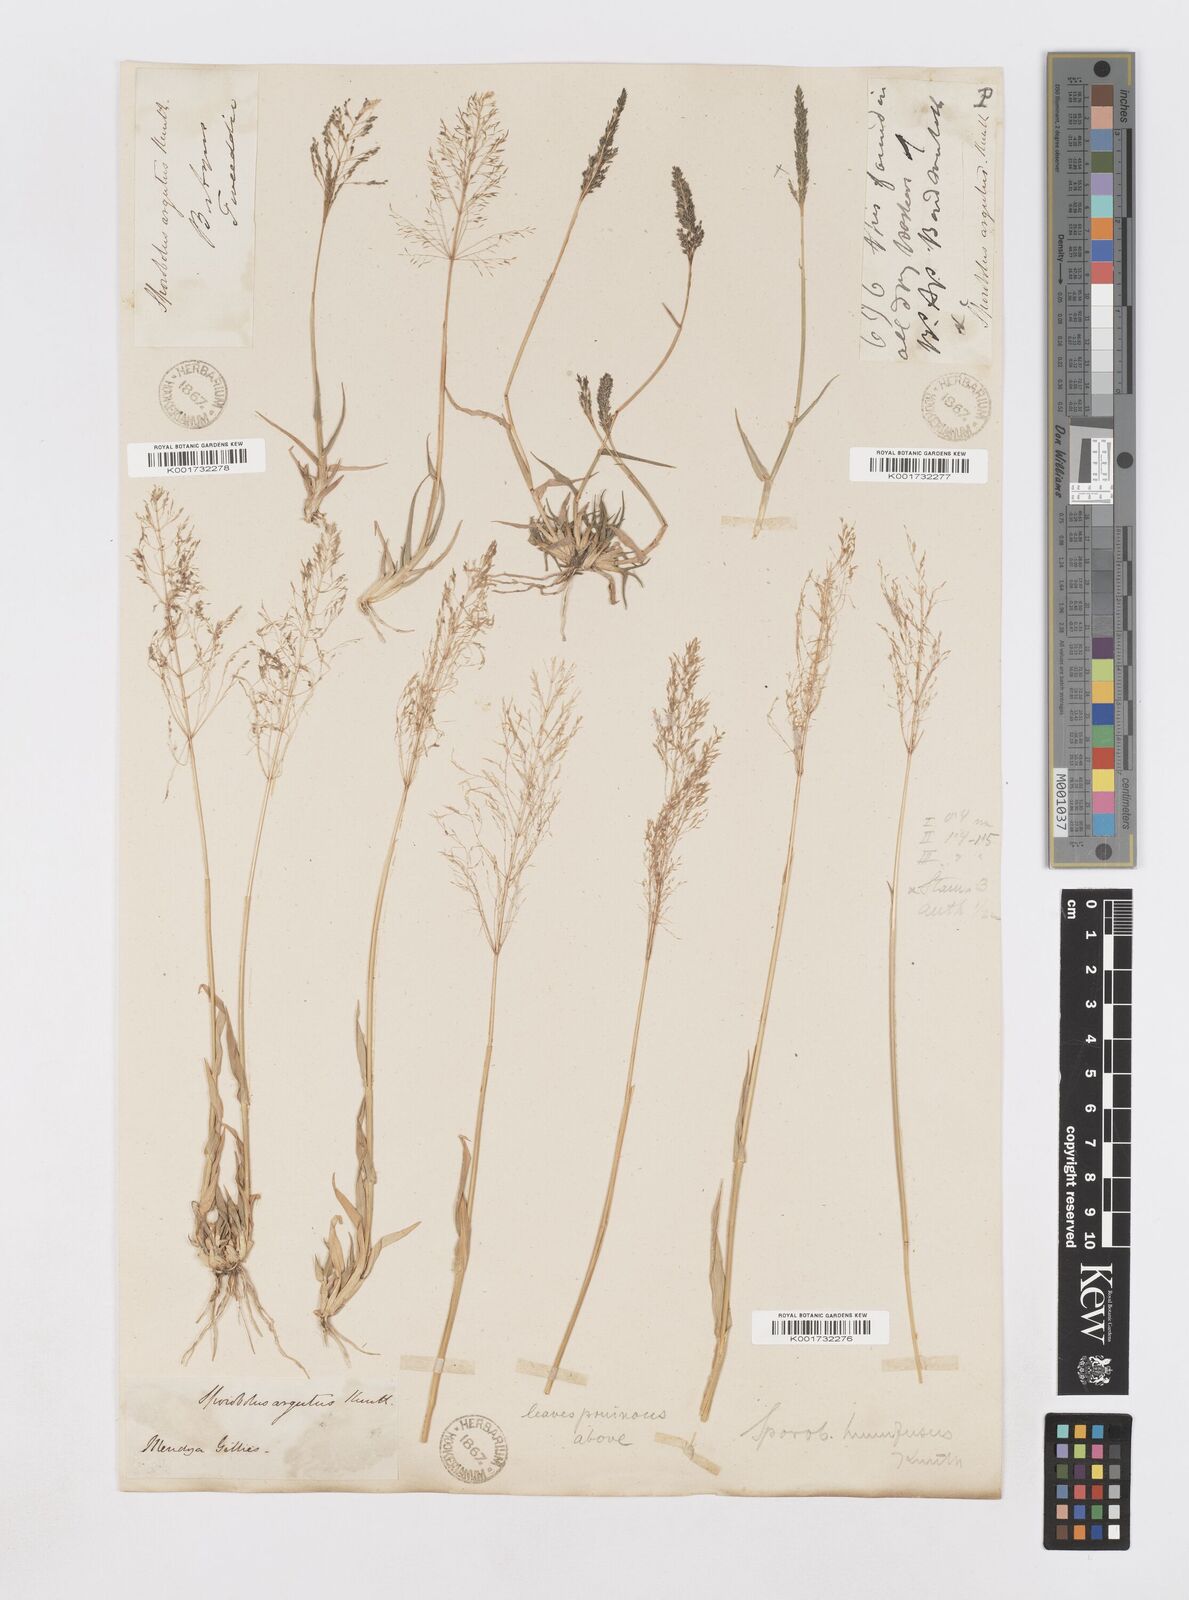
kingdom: Plantae
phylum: Tracheophyta
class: Liliopsida
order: Poales
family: Poaceae
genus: Sporobolus
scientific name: Sporobolus pyramidatus
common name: Whorled dropseed
